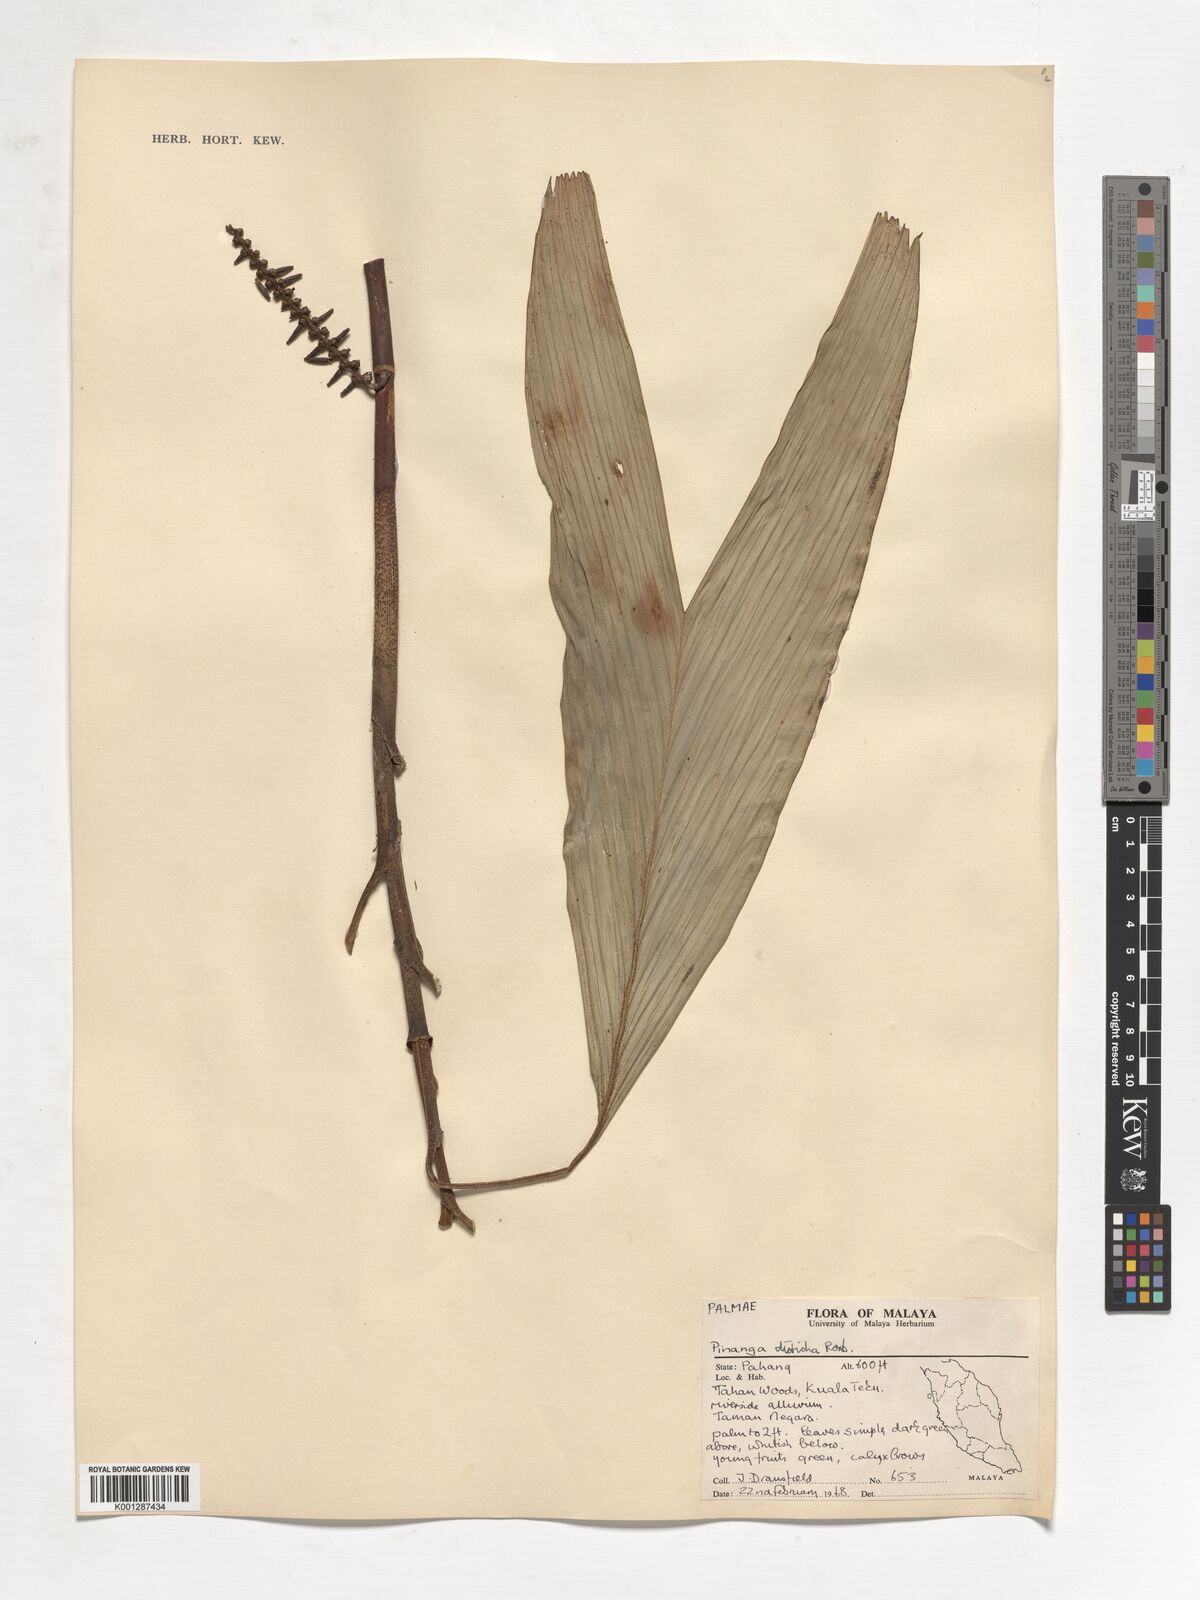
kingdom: Plantae
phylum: Tracheophyta
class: Liliopsida
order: Arecales
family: Arecaceae
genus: Pinanga
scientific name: Pinanga disticha
